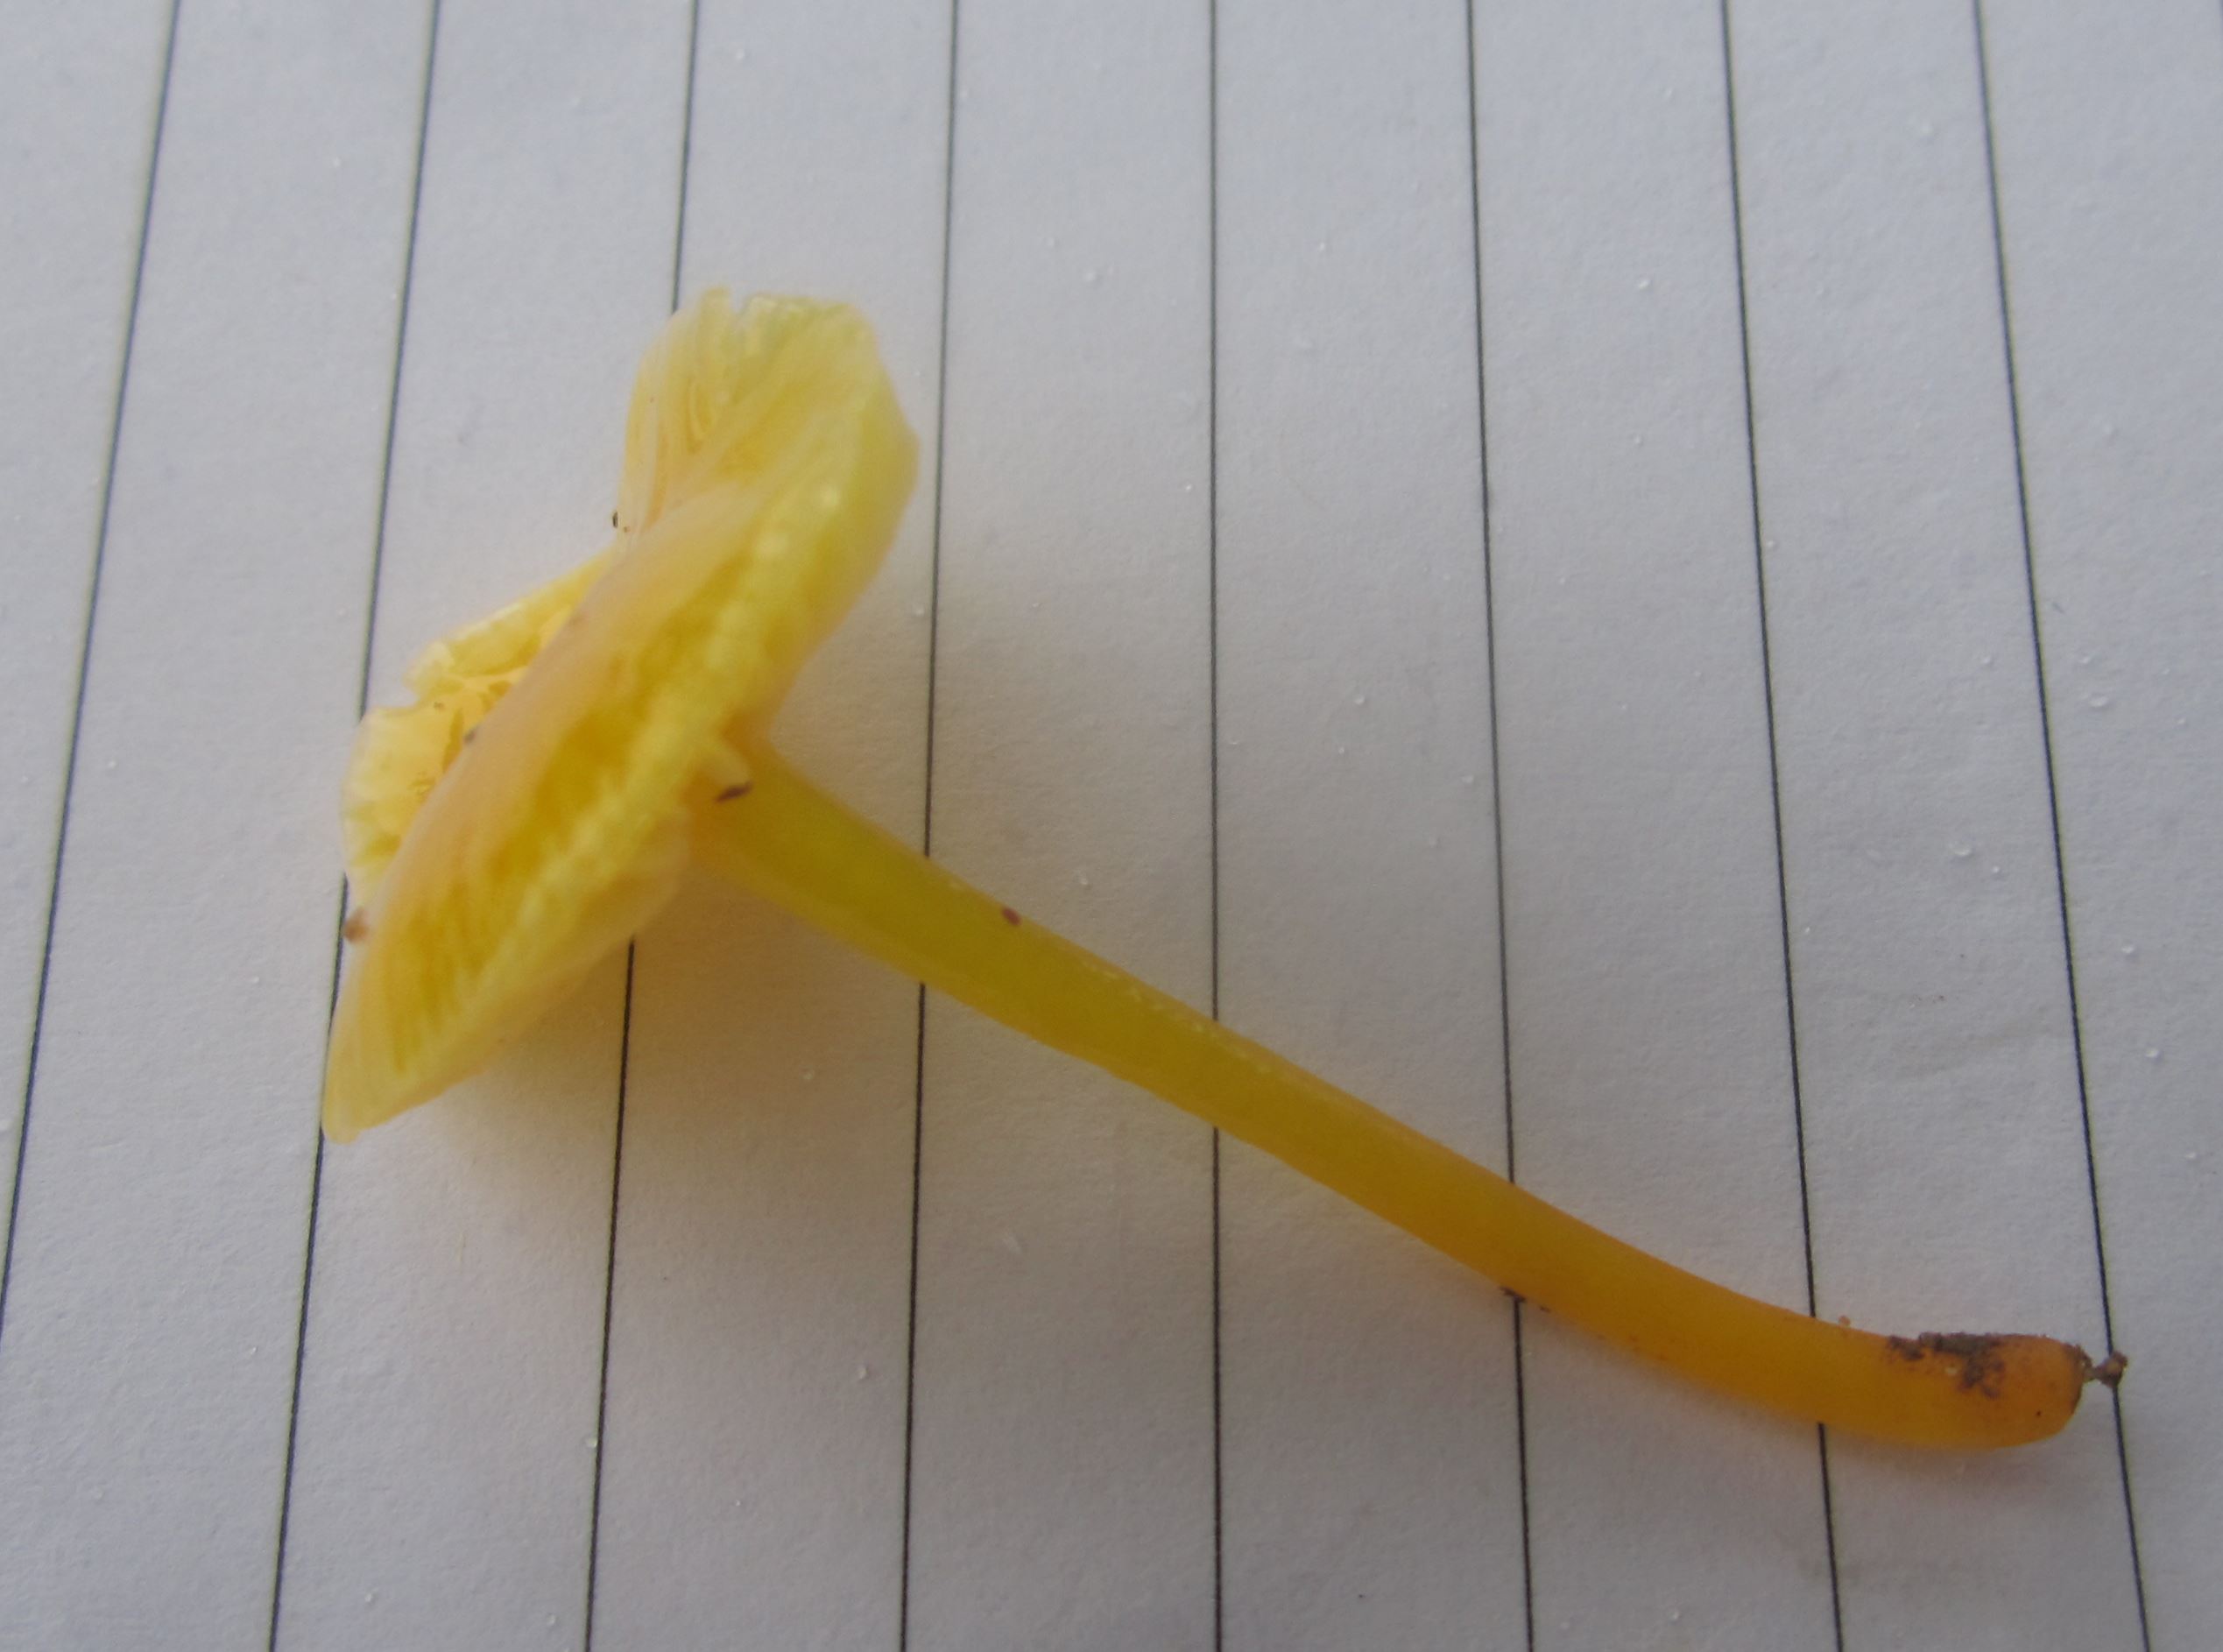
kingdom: Fungi
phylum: Basidiomycota
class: Agaricomycetes
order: Agaricales
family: Hygrophoraceae
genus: Hygrocybe
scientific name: Hygrocybe glutinipes
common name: slimstokket vokshat
